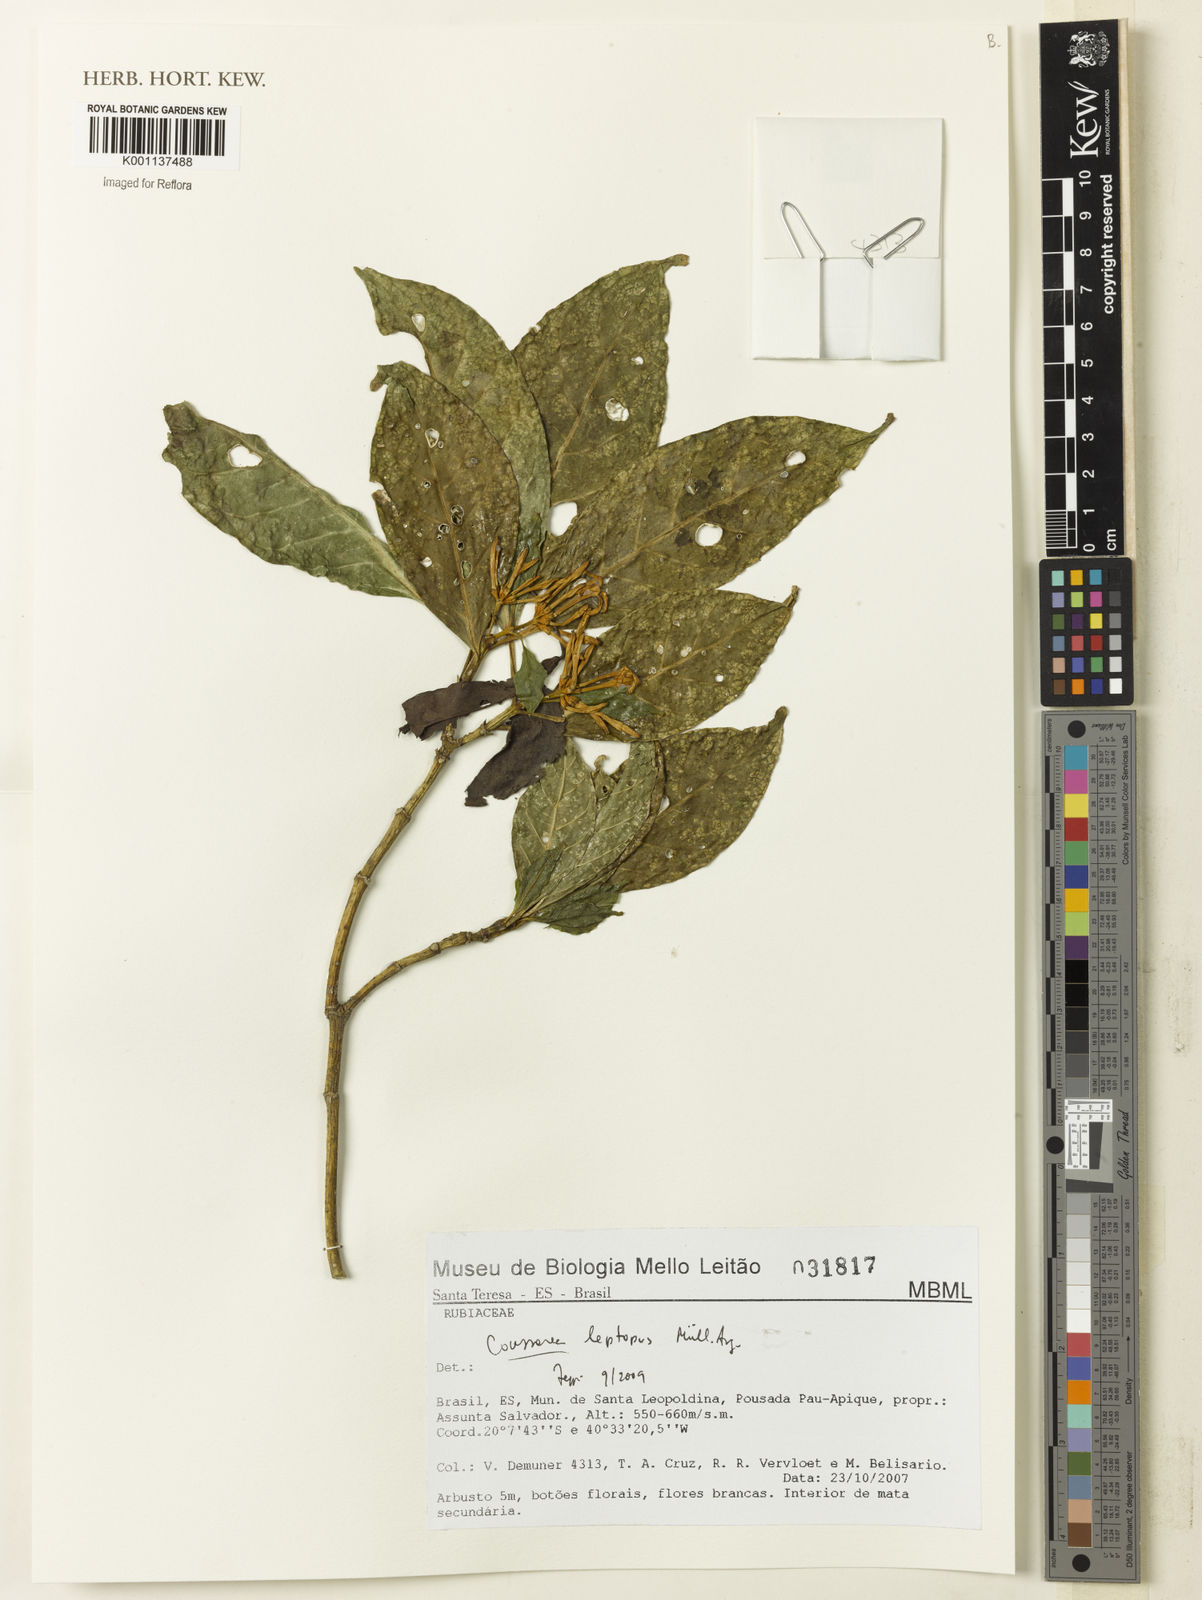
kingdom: Plantae
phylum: Tracheophyta
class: Magnoliopsida
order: Gentianales
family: Rubiaceae
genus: Coussarea
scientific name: Coussarea
